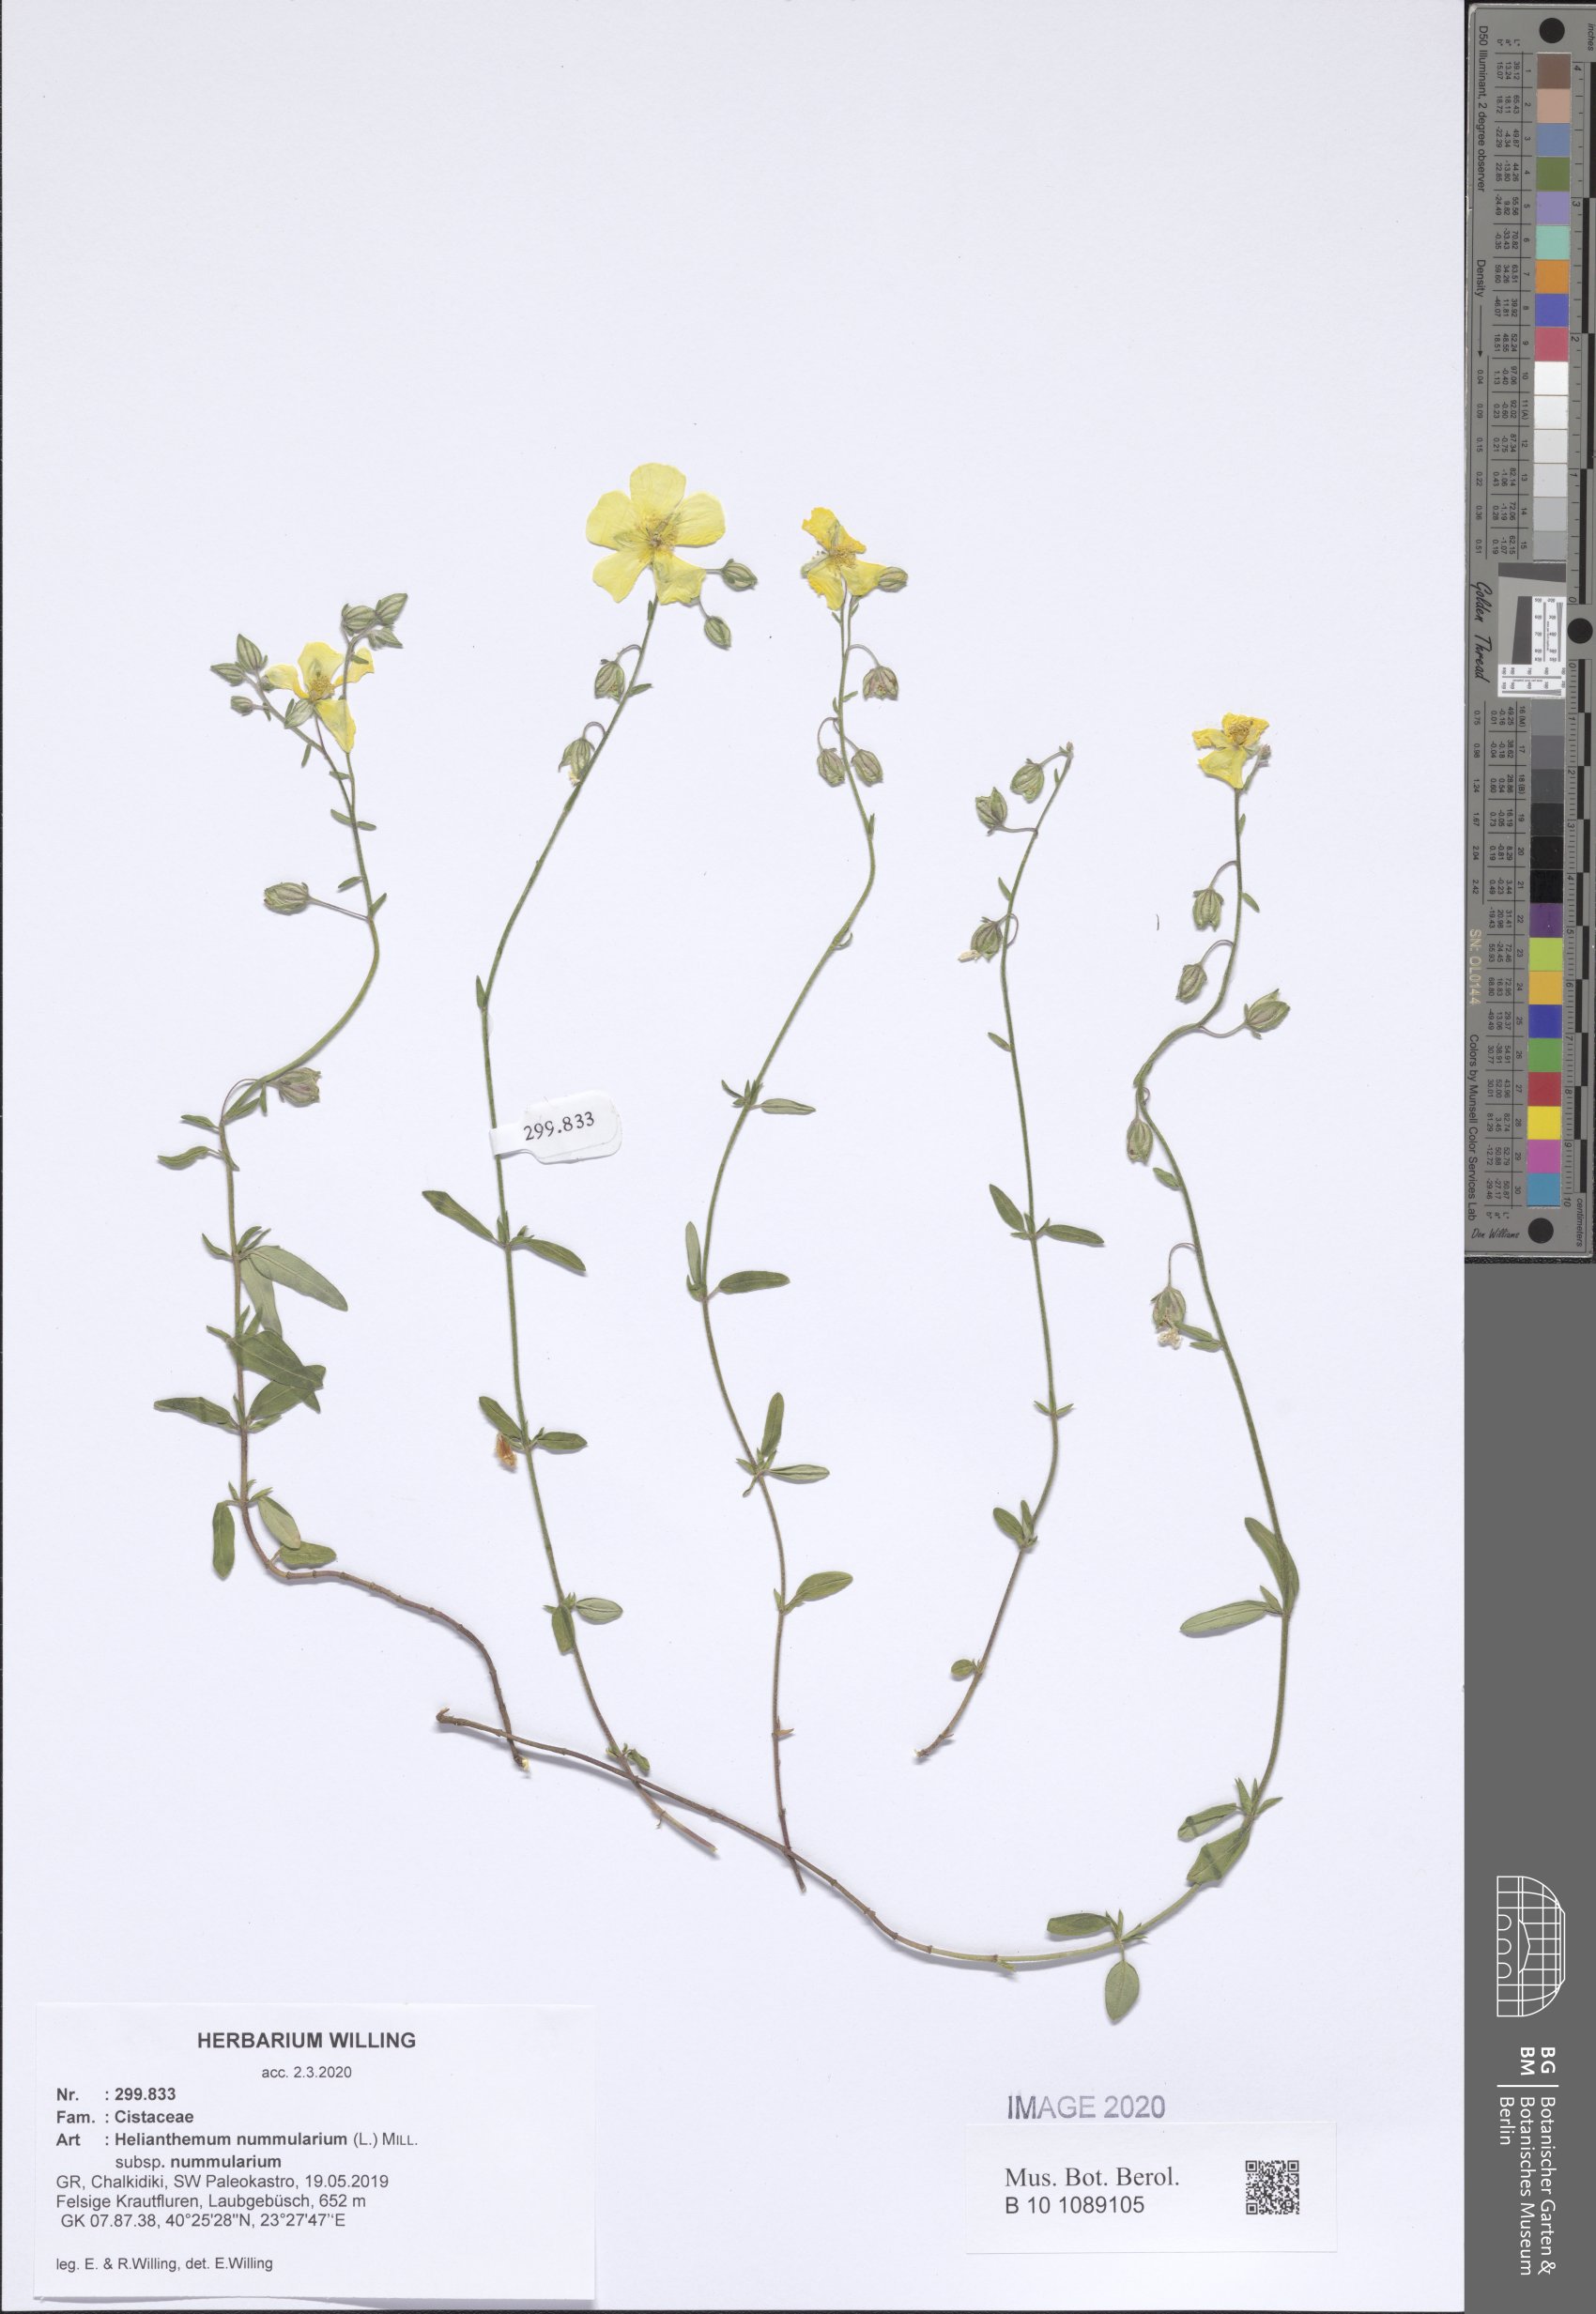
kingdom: Plantae
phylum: Tracheophyta
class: Magnoliopsida
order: Malvales
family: Cistaceae
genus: Helianthemum
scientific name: Helianthemum nummularium
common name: Common rock-rose
